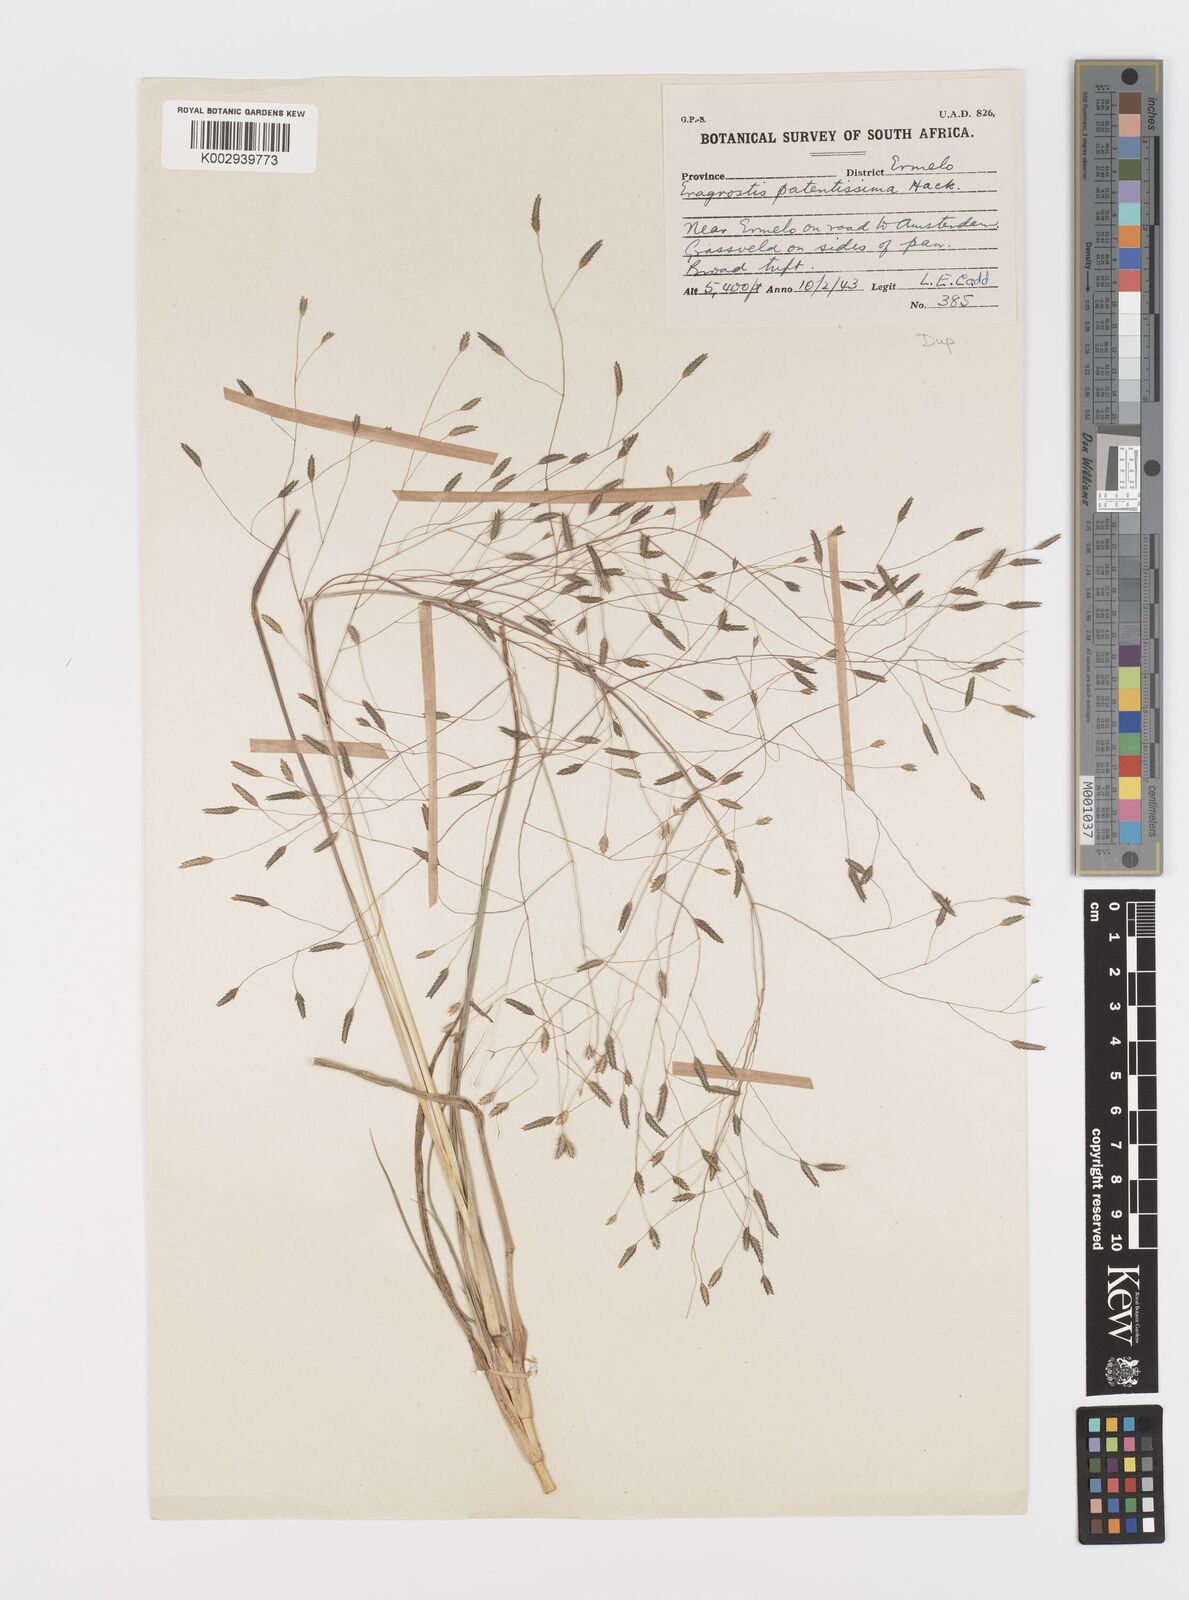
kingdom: Plantae
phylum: Tracheophyta
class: Liliopsida
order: Poales
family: Poaceae
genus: Eragrostis
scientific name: Eragrostis patentissima
